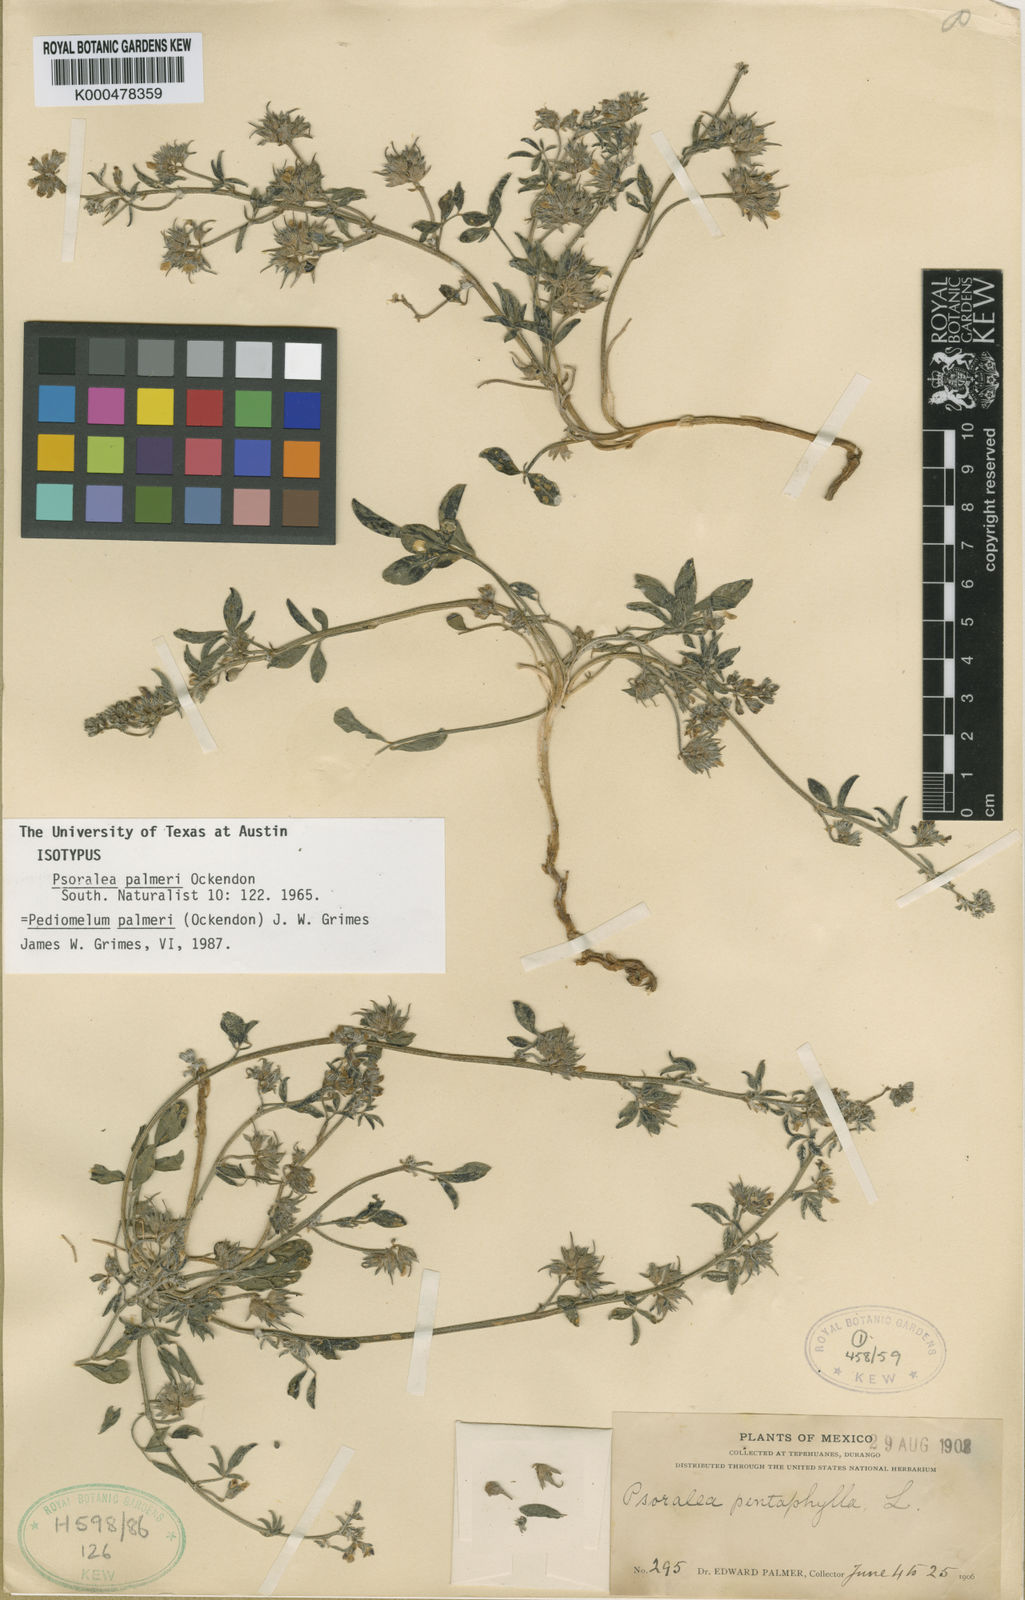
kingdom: Plantae
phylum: Tracheophyta
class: Magnoliopsida
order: Fabales
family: Fabaceae
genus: Pediomelum
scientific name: Pediomelum palmeri
